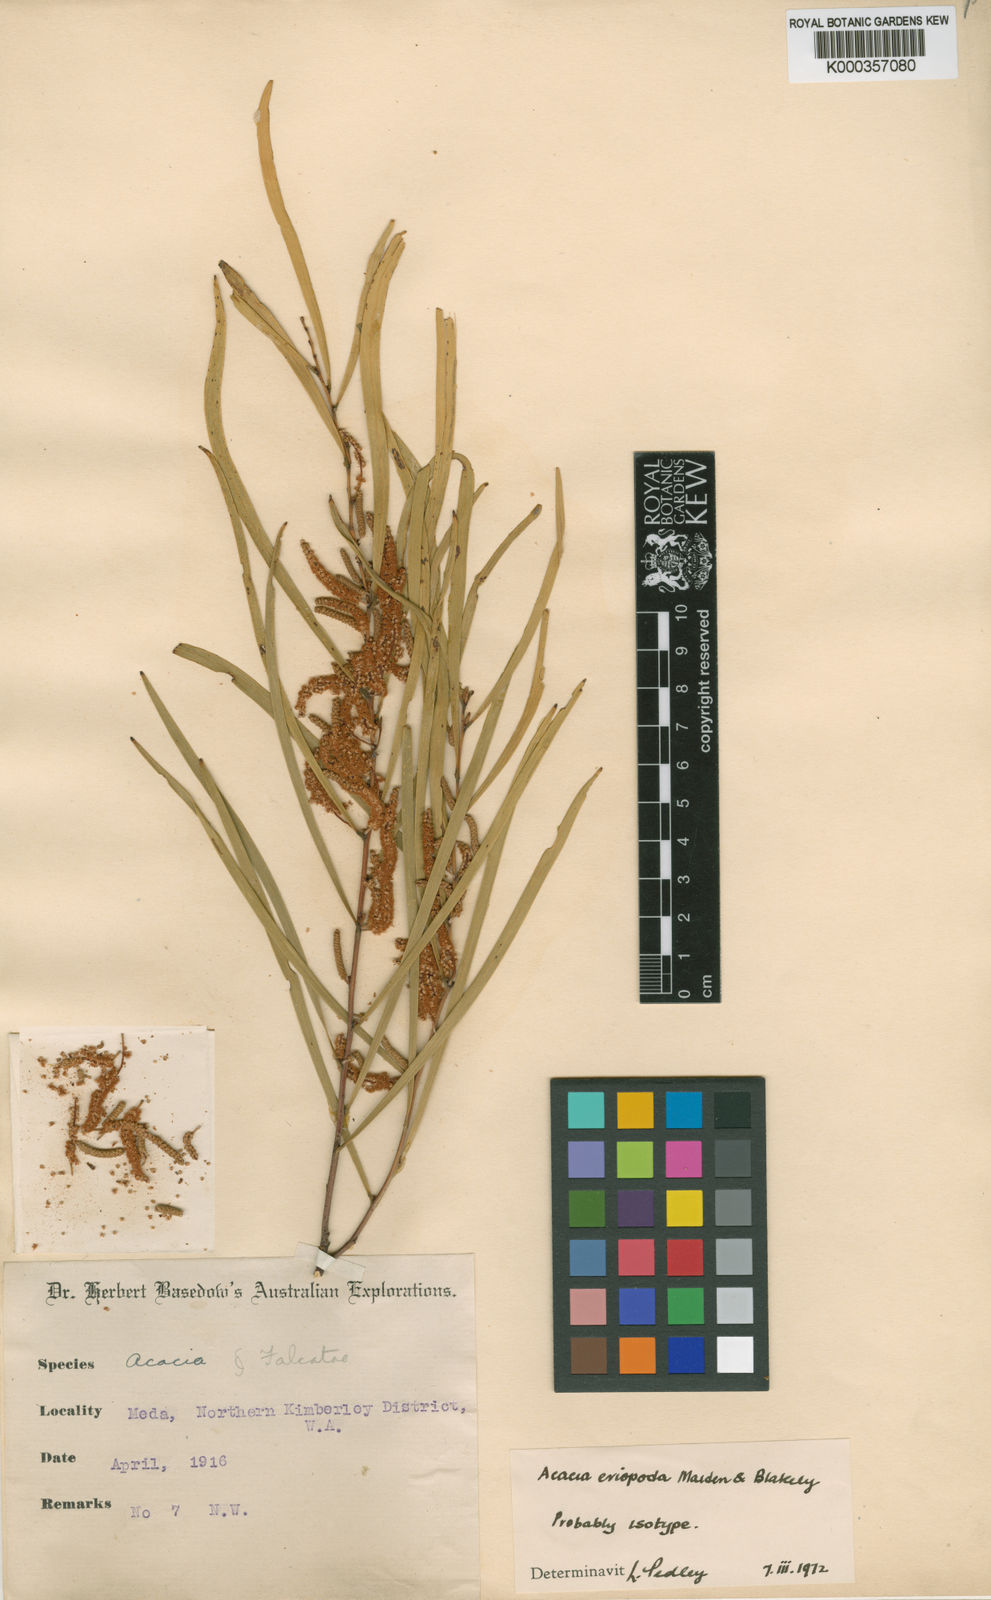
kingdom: Plantae
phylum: Tracheophyta
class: Magnoliopsida
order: Fabales
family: Fabaceae
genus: Acacia
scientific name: Acacia eriopoda
